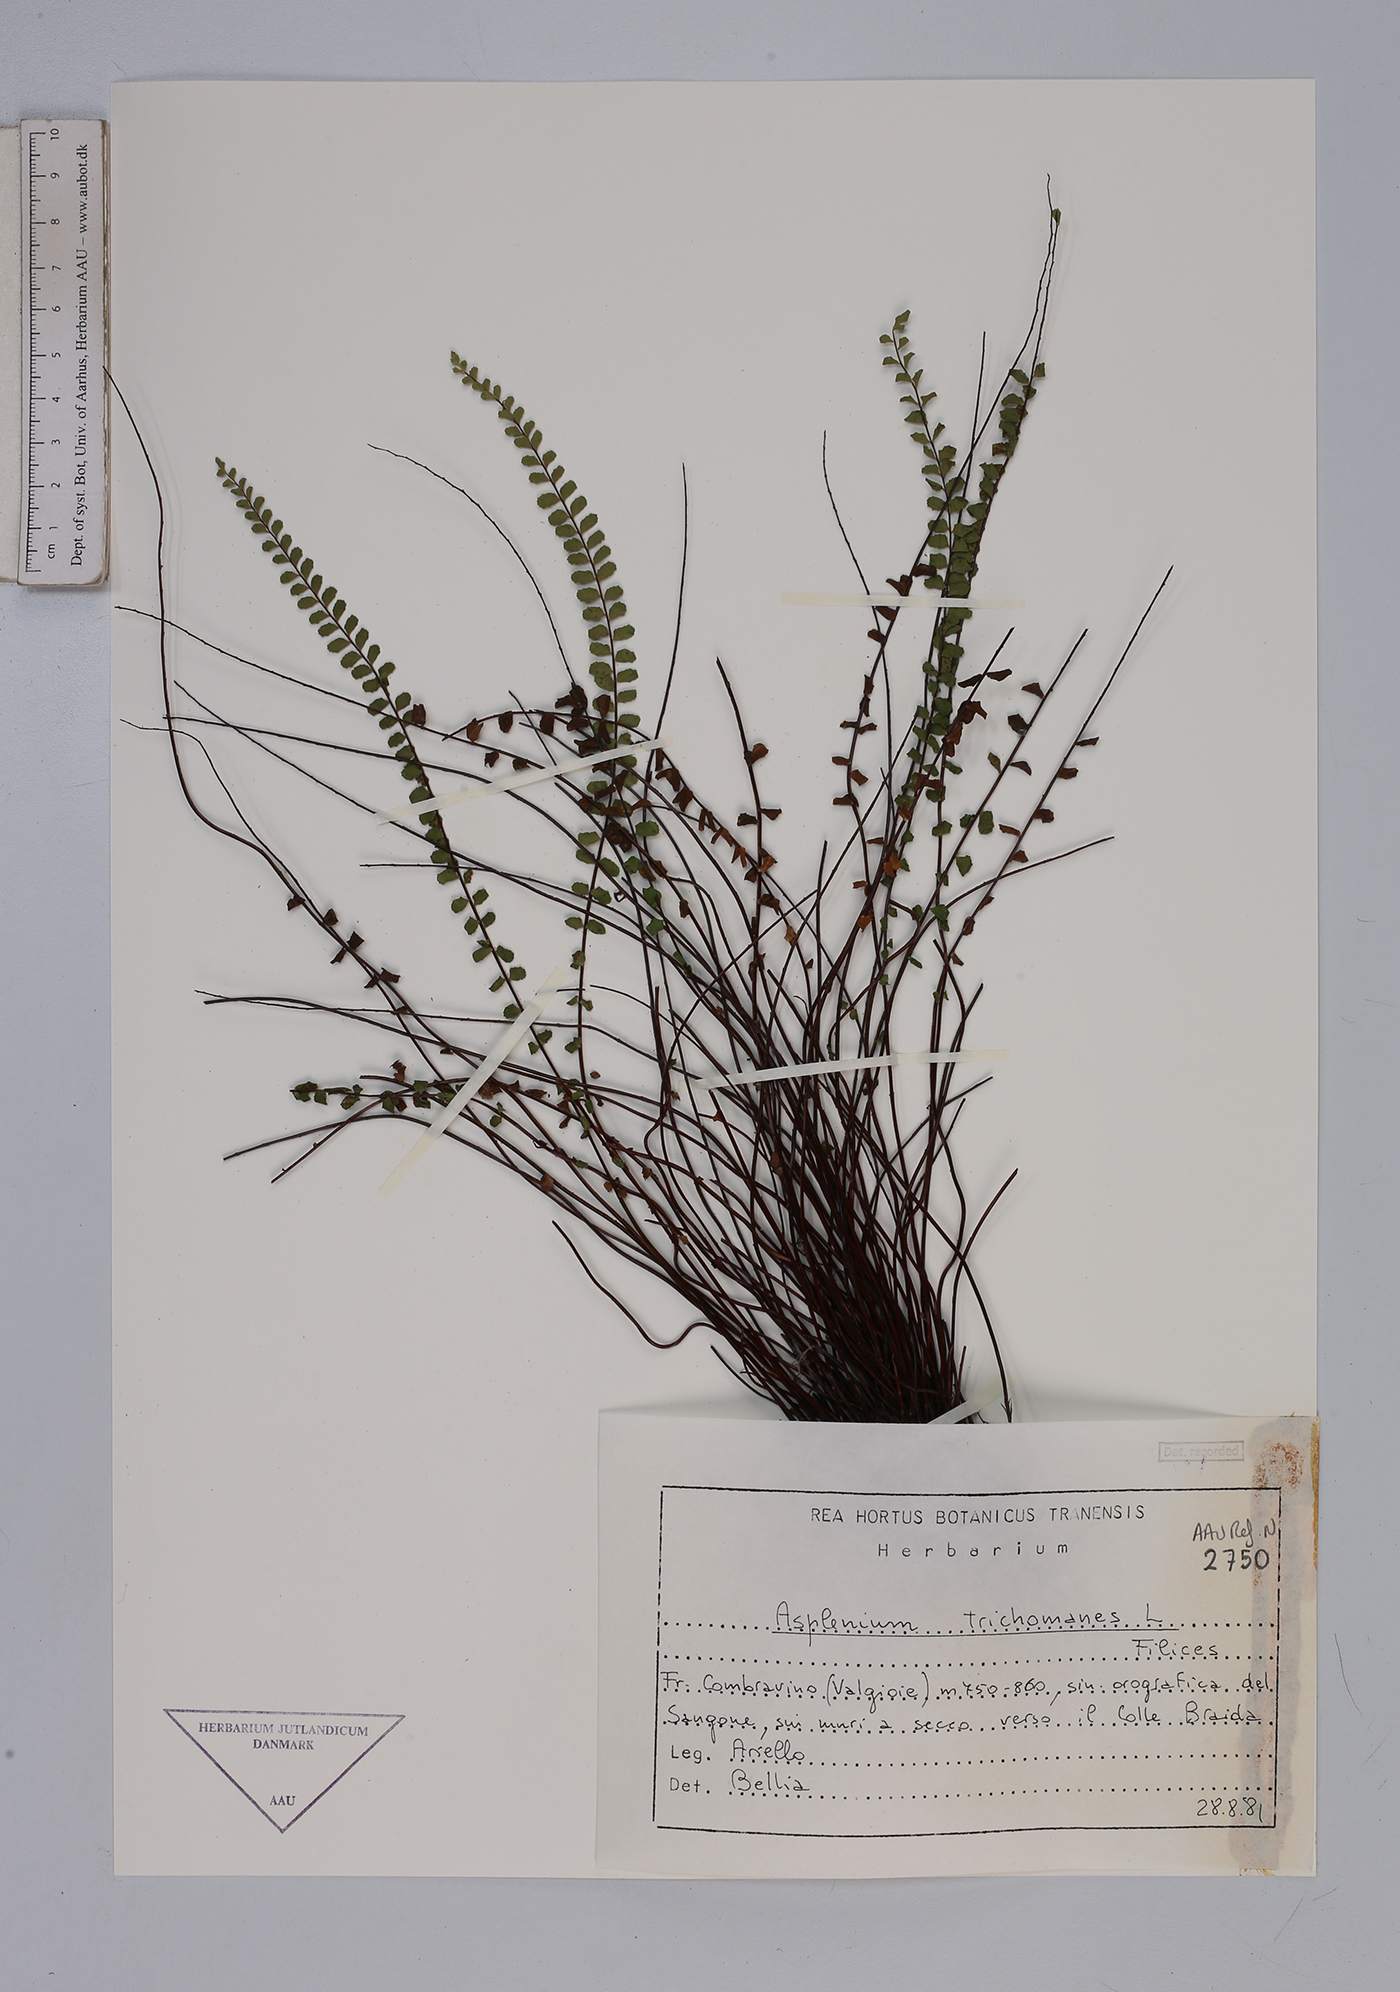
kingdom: Plantae
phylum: Tracheophyta
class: Polypodiopsida
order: Polypodiales
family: Aspleniaceae
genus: Asplenium
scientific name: Asplenium trichomanes
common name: Maidenhair spleenwort
